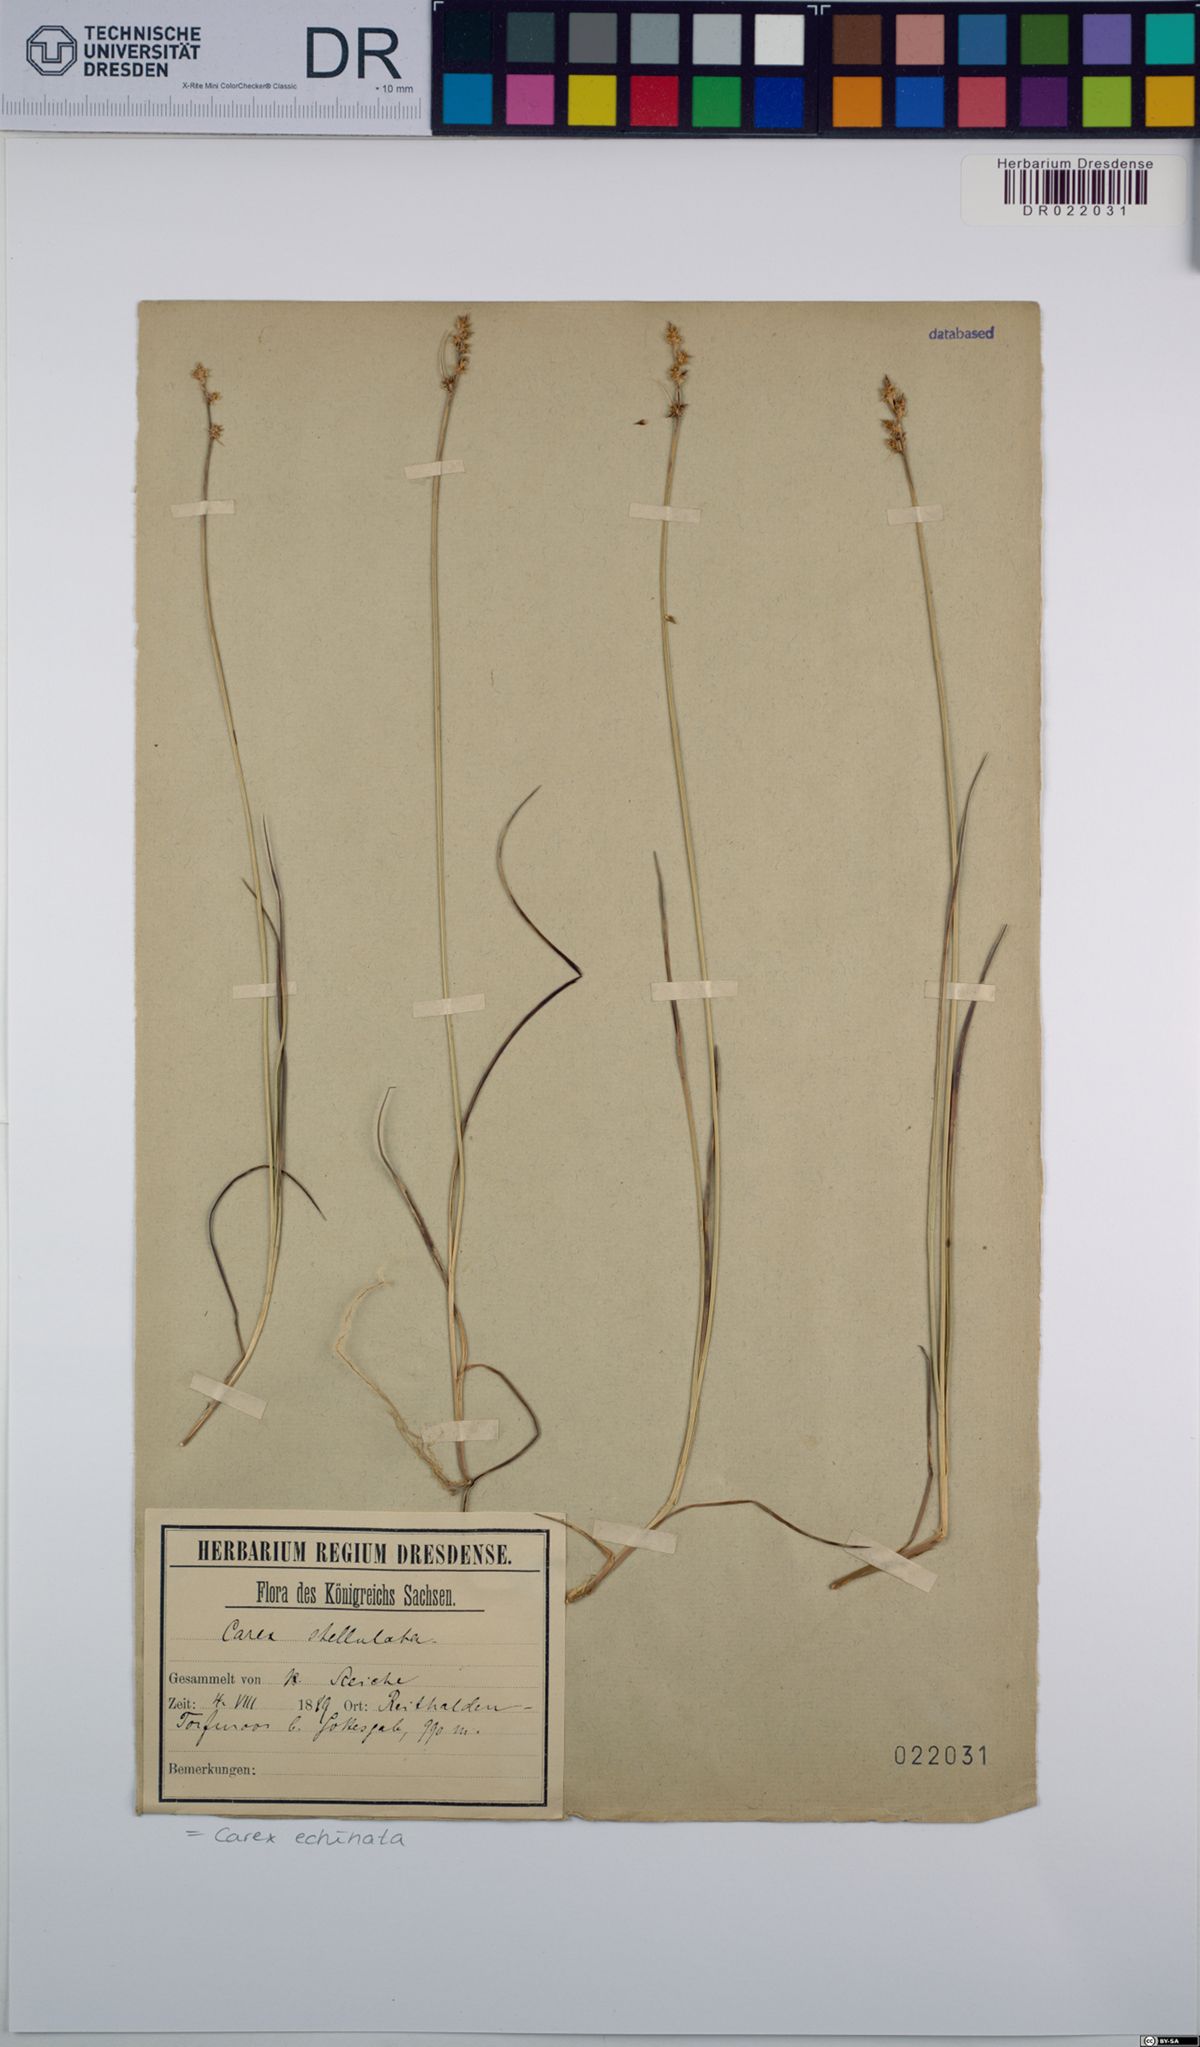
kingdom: Plantae
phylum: Tracheophyta
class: Liliopsida
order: Poales
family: Cyperaceae
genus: Carex
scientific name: Carex echinata
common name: Star sedge
